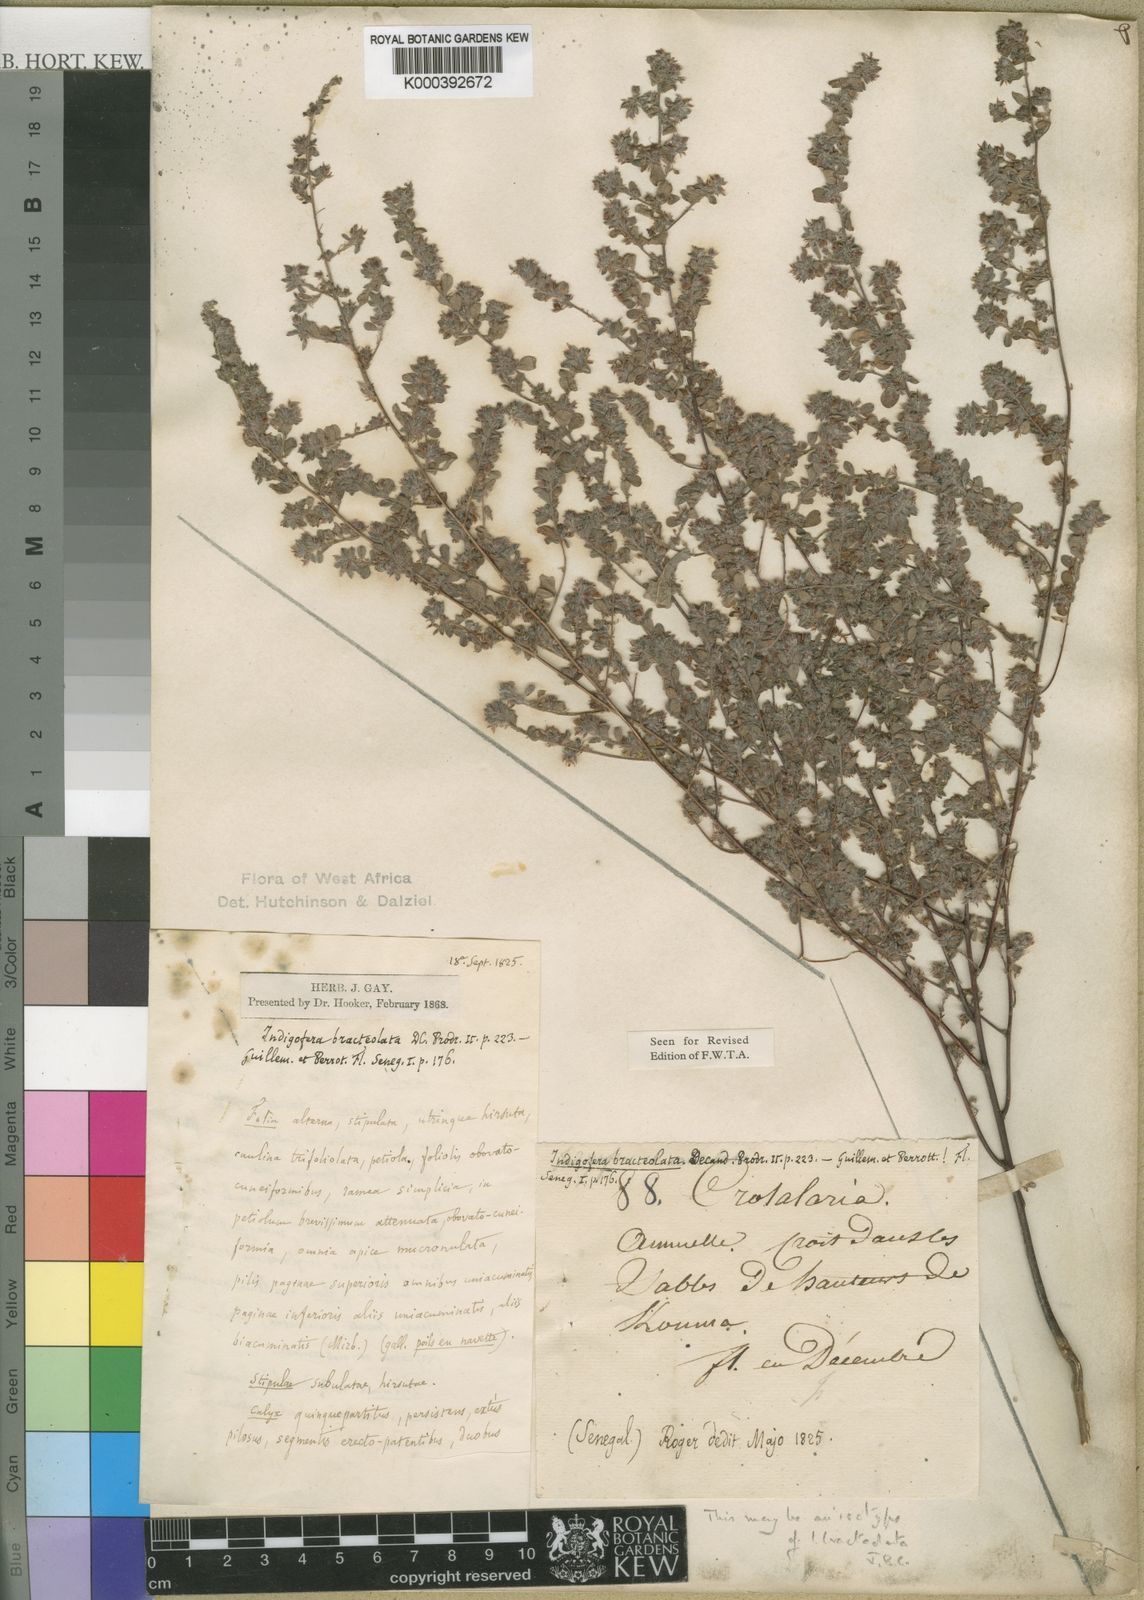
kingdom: Plantae
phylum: Tracheophyta
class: Magnoliopsida
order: Fabales
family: Fabaceae
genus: Indigofera
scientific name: Indigofera
